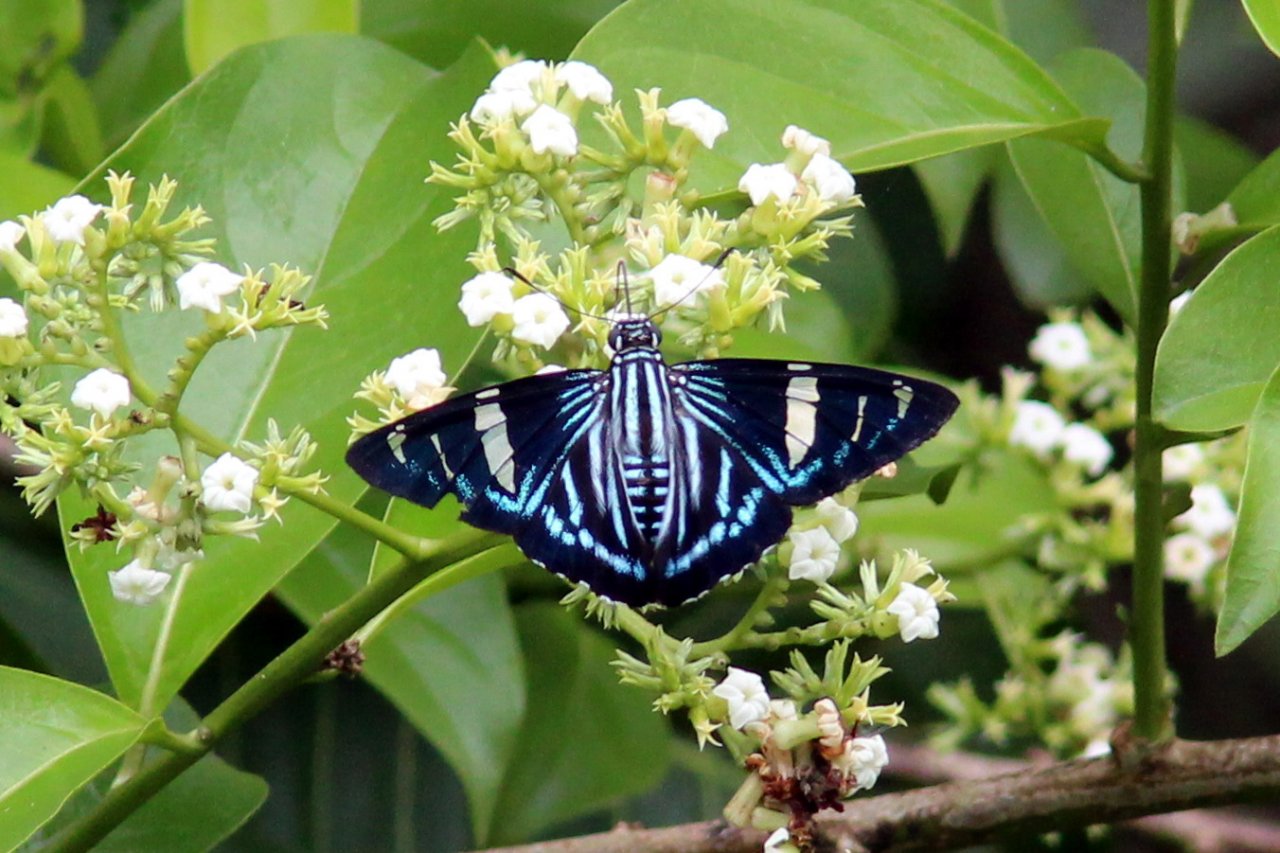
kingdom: Animalia
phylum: Arthropoda
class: Insecta
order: Lepidoptera
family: Hesperiidae
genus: Phocides
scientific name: Phocides metrodorus
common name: Metrodorus Skipper
